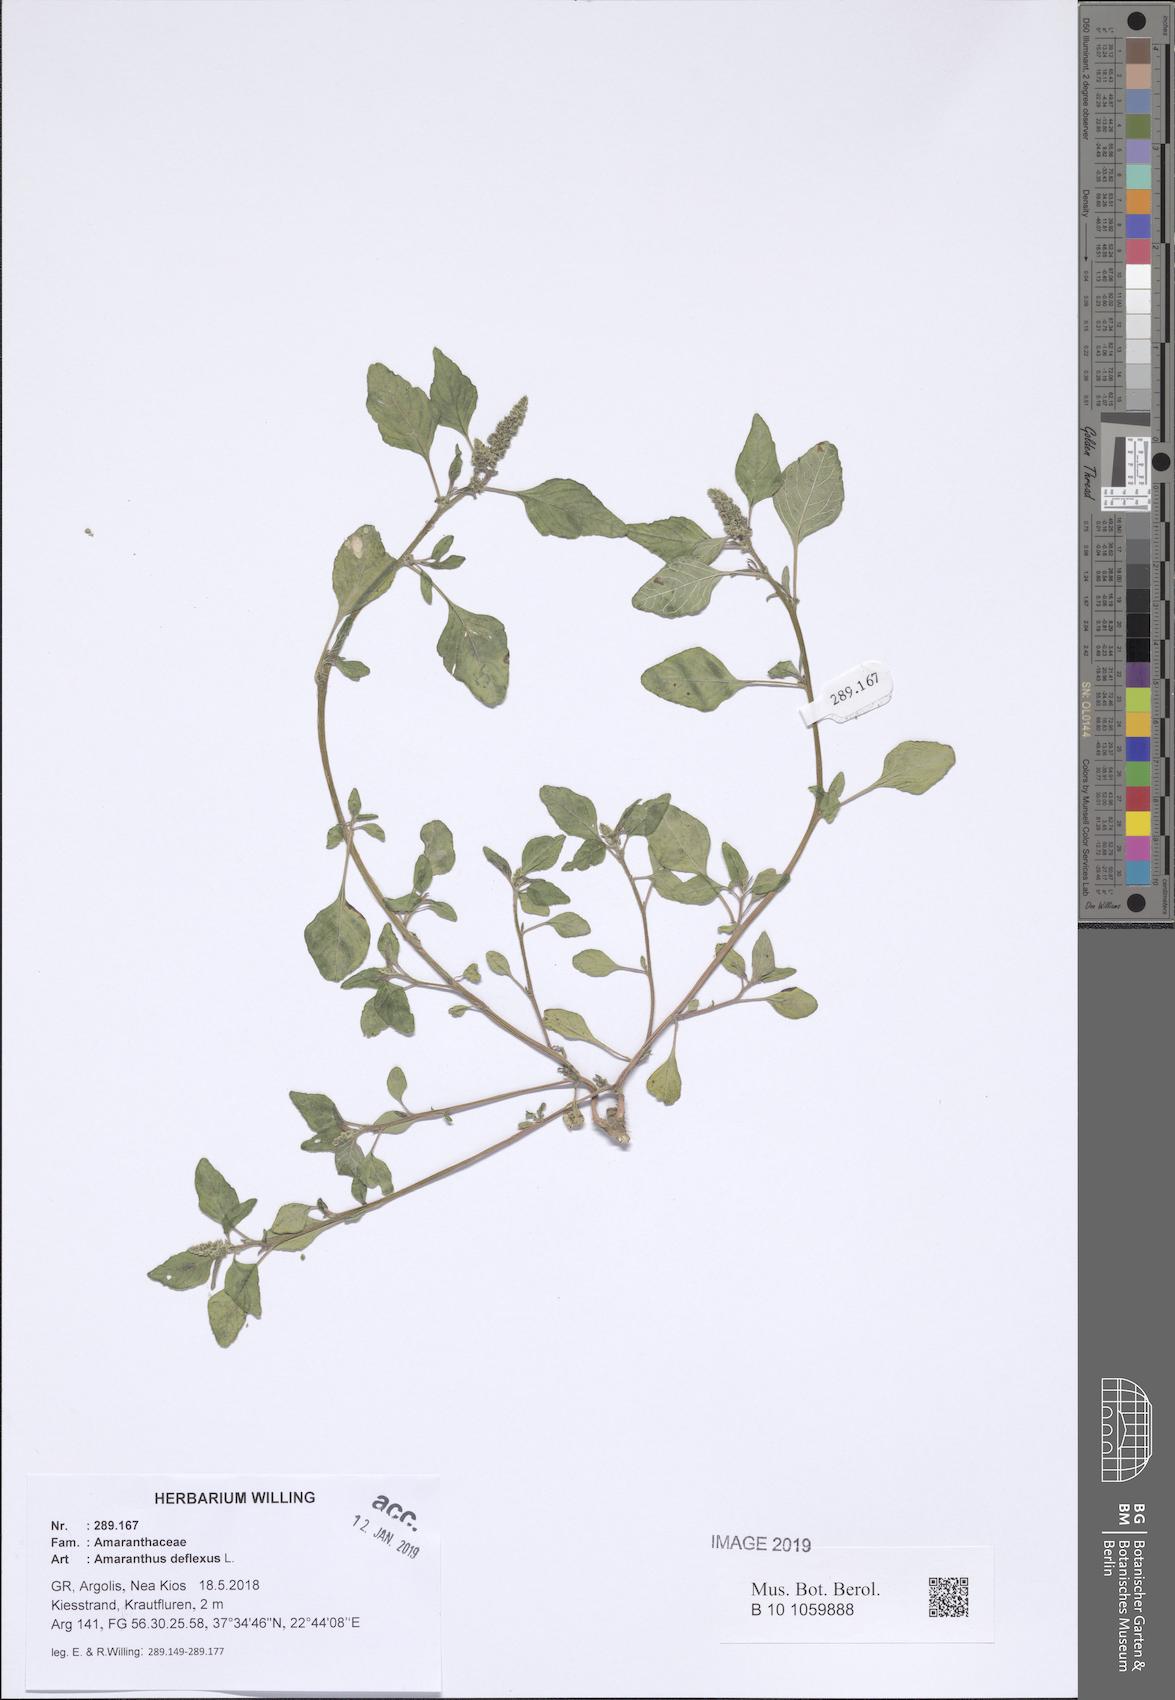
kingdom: Plantae
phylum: Tracheophyta
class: Magnoliopsida
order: Caryophyllales
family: Amaranthaceae
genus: Amaranthus
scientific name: Amaranthus deflexus
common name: Perennial pigweed
